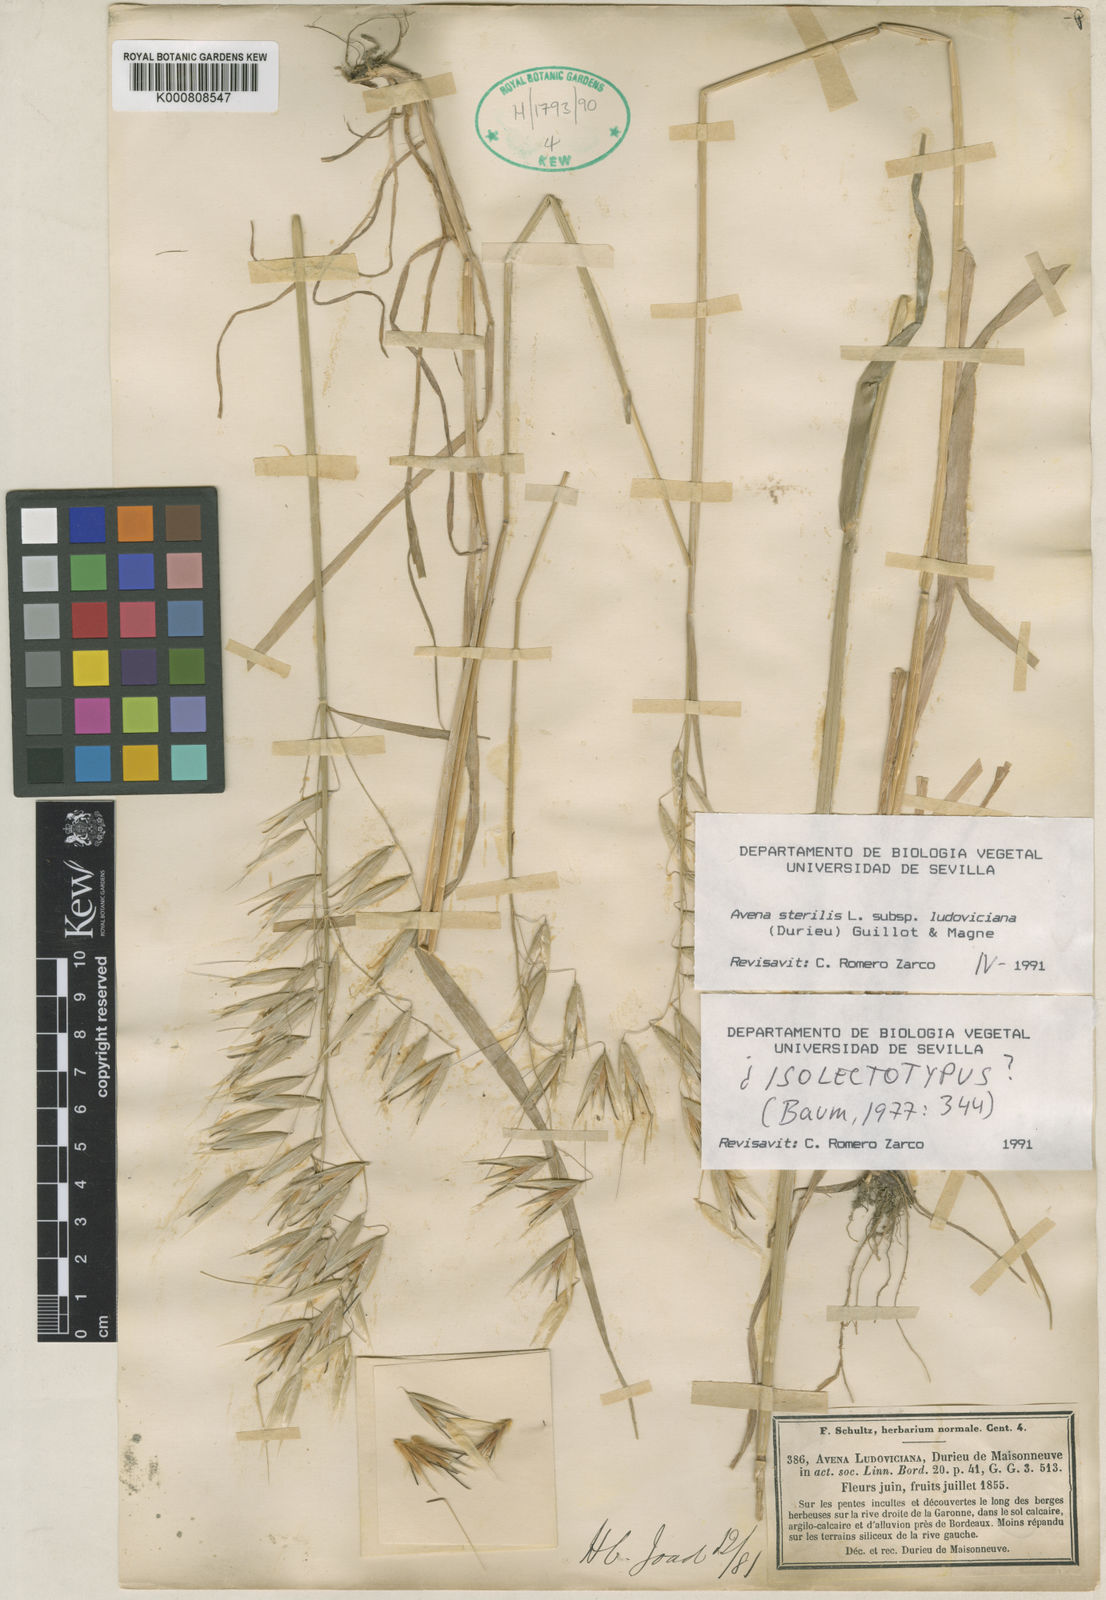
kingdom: Plantae
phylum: Tracheophyta
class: Liliopsida
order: Poales
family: Poaceae
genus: Avena
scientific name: Avena sterilis
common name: Animated oat
